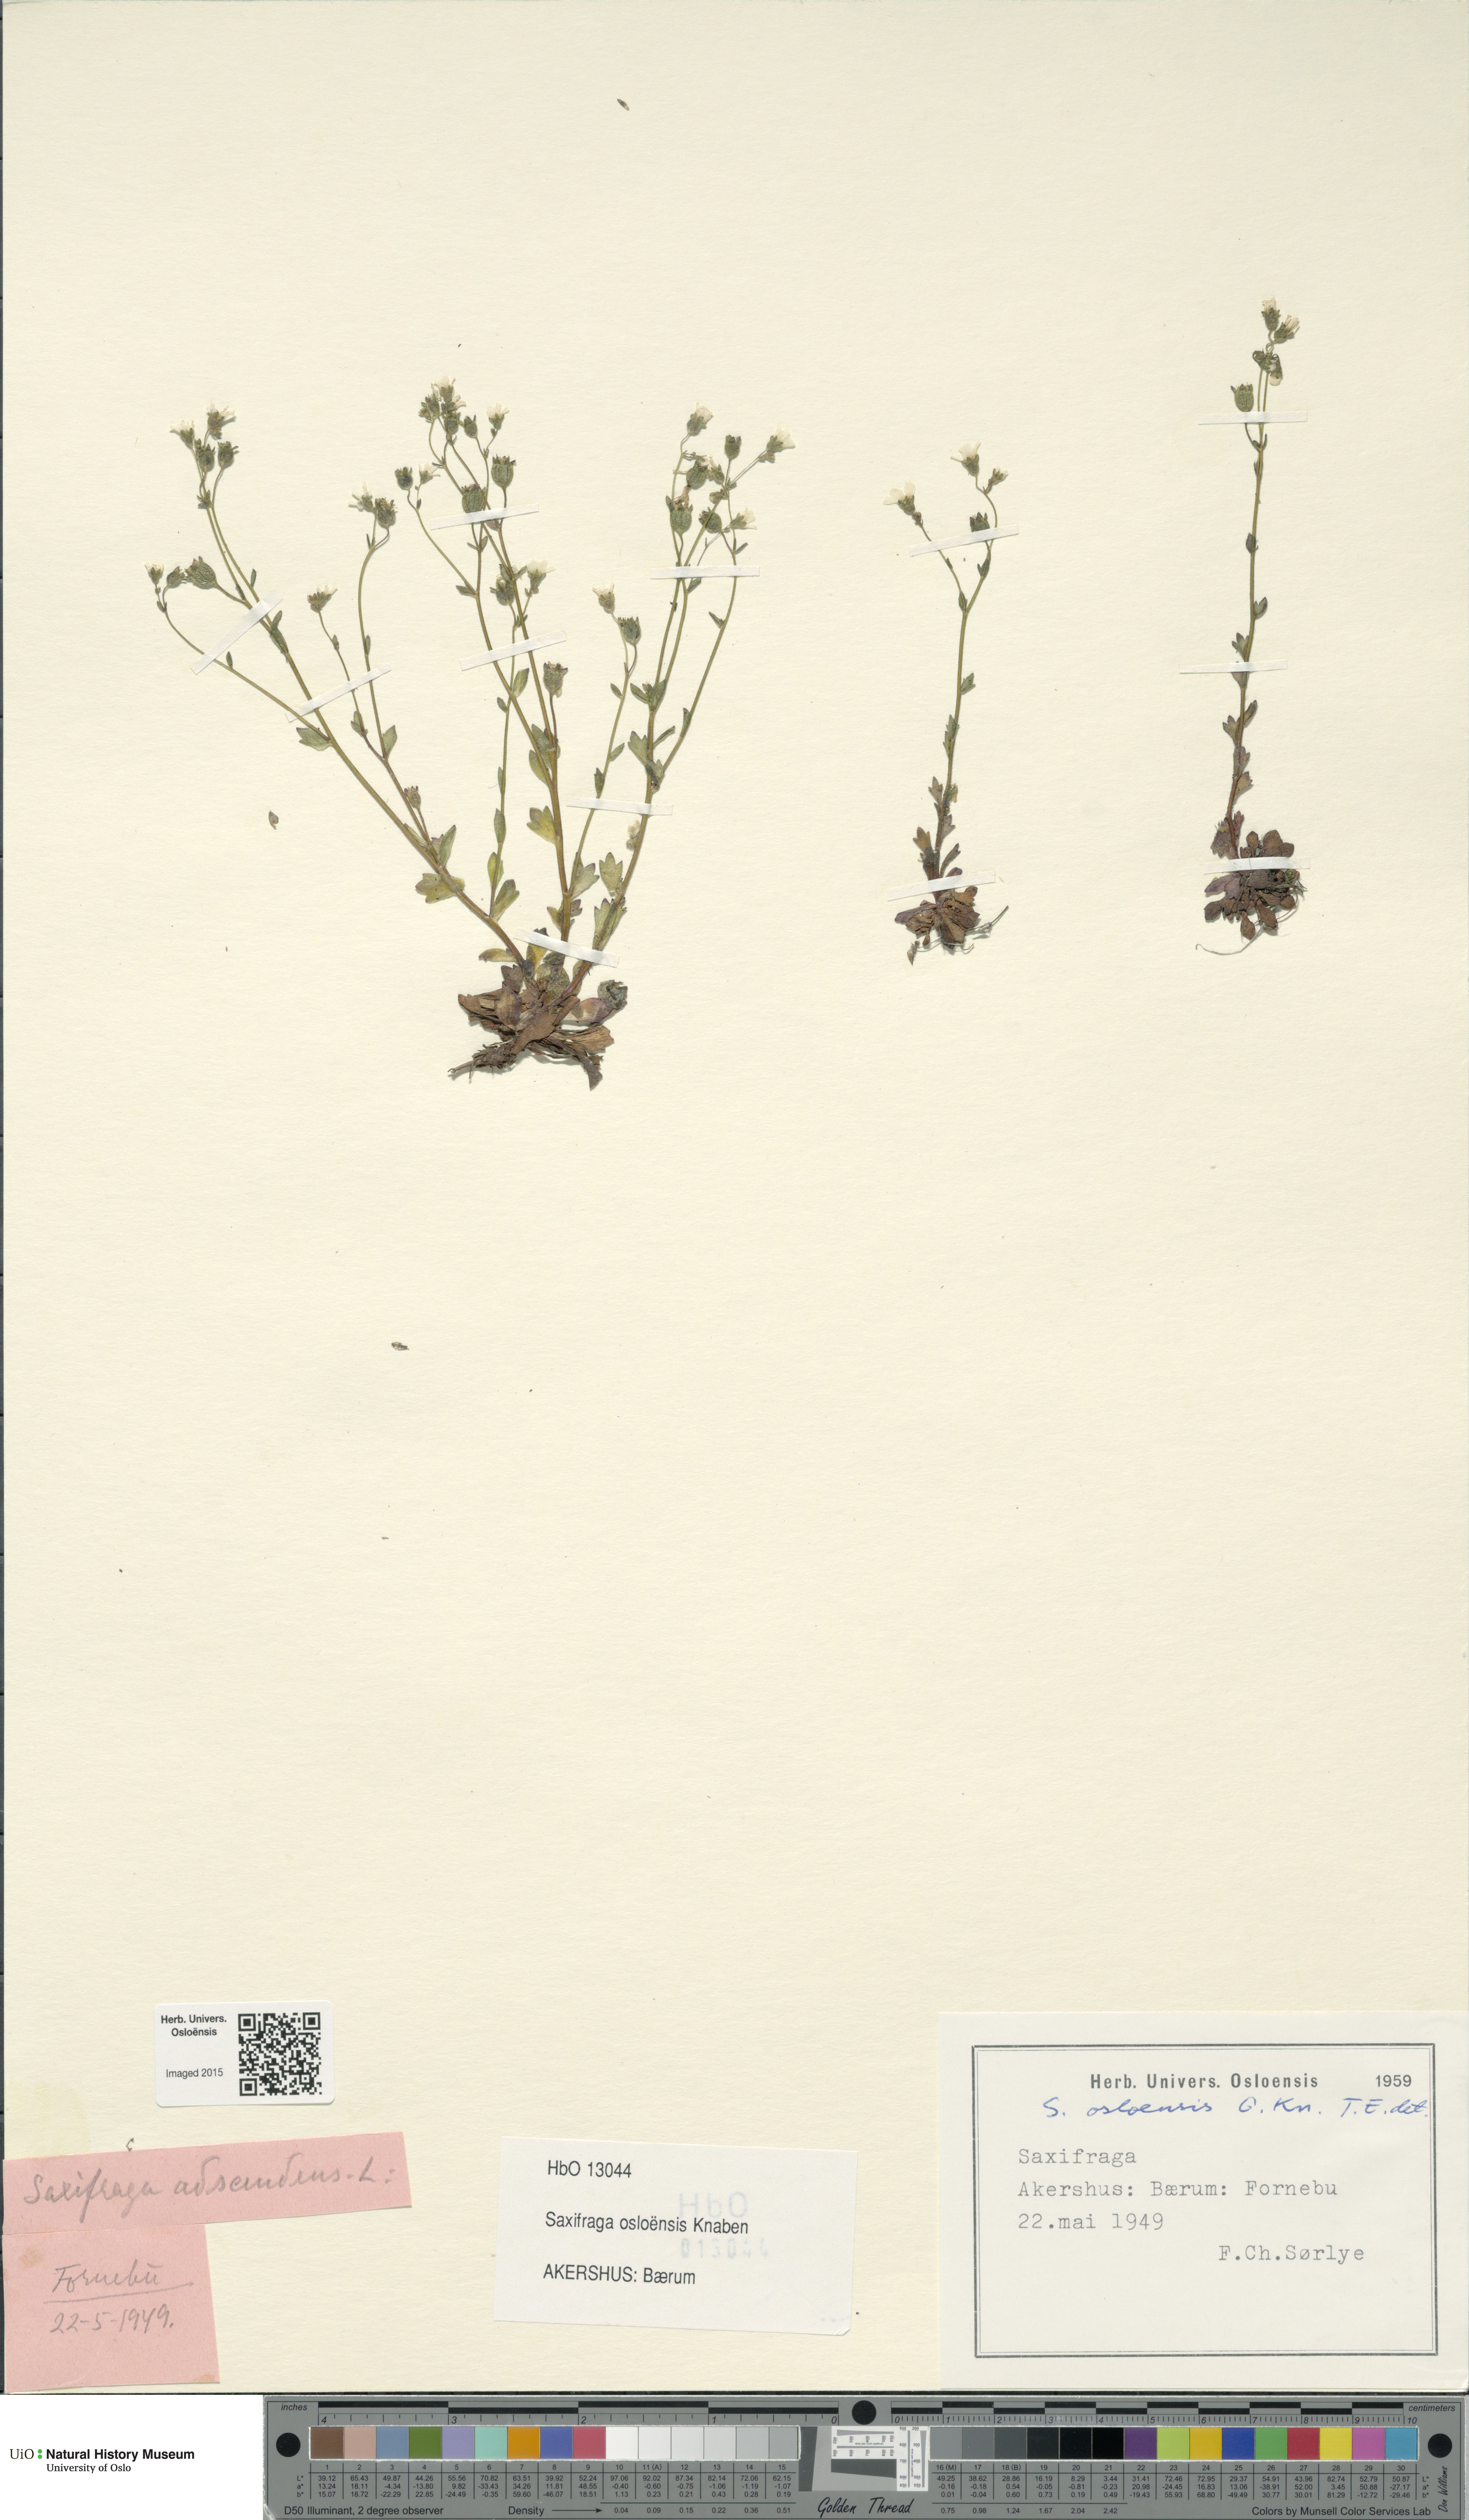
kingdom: Plantae
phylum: Tracheophyta
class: Magnoliopsida
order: Saxifragales
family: Saxifragaceae
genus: Saxifraga
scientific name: Saxifraga osloensis
